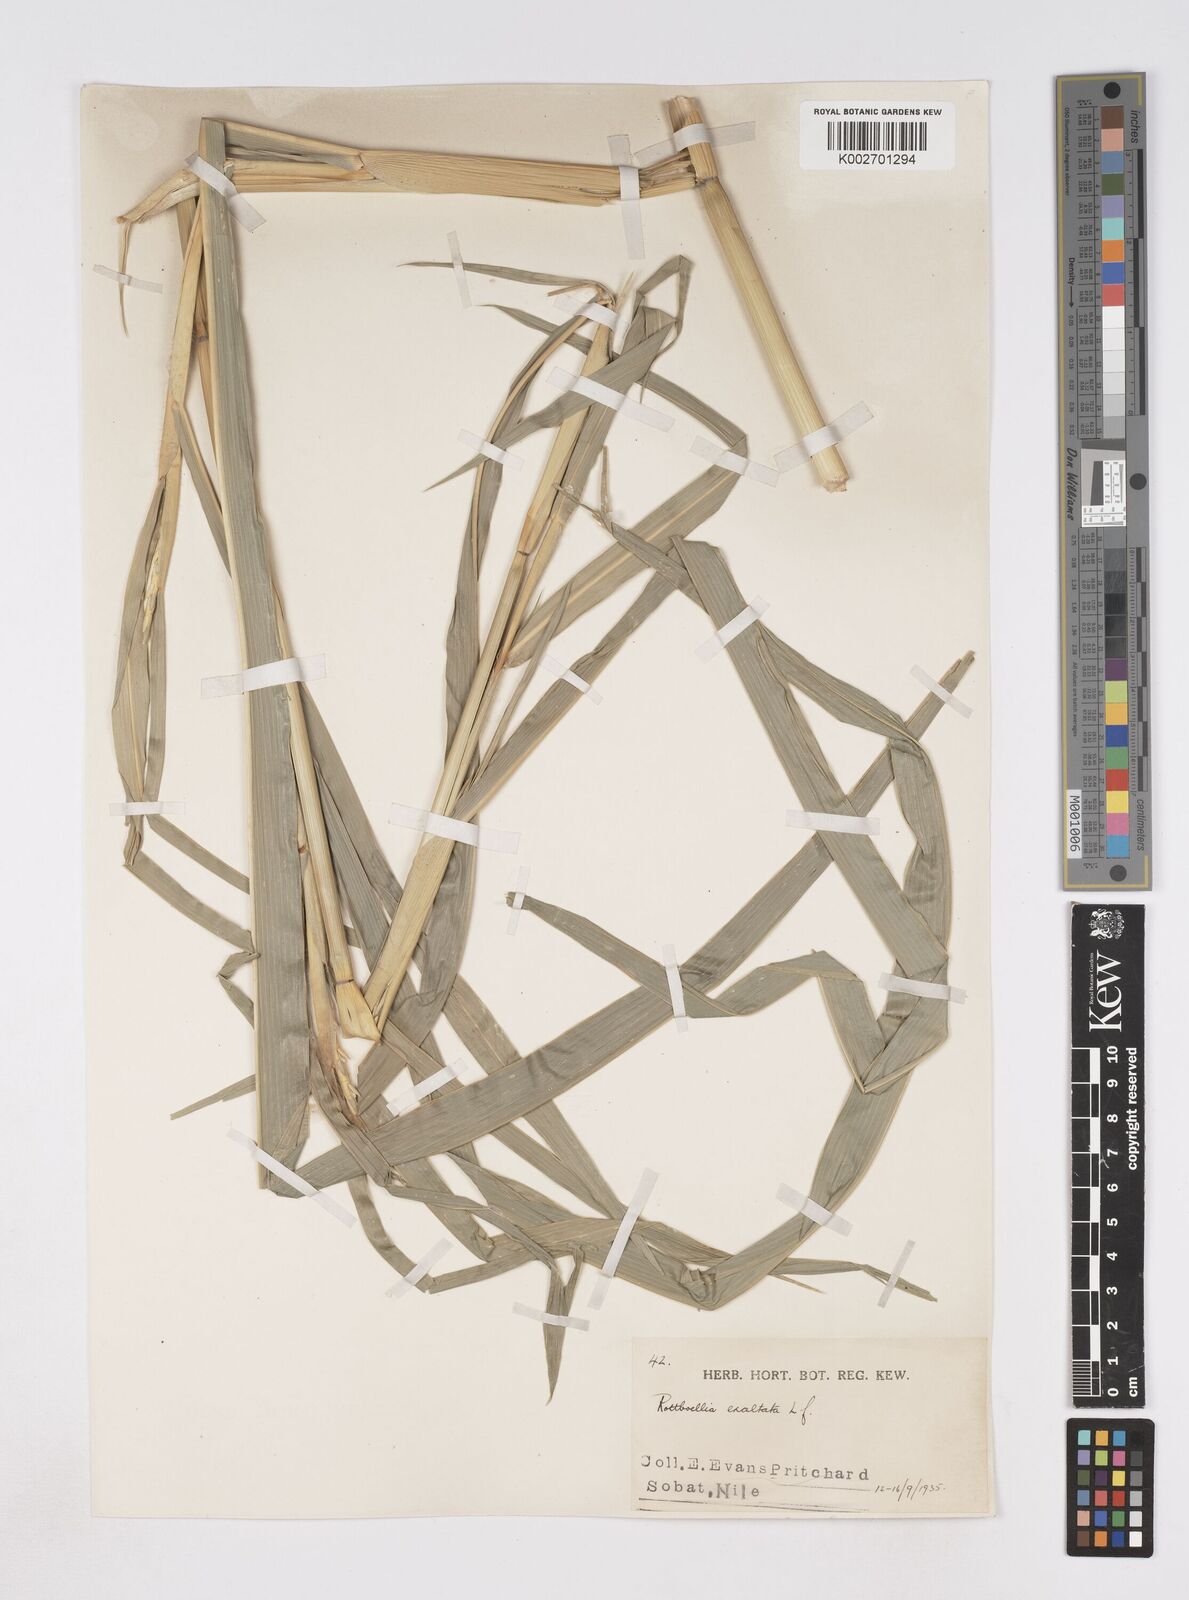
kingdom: Plantae
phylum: Tracheophyta
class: Liliopsida
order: Poales
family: Poaceae
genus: Rottboellia
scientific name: Rottboellia cochinchinensis
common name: Itchgrass
